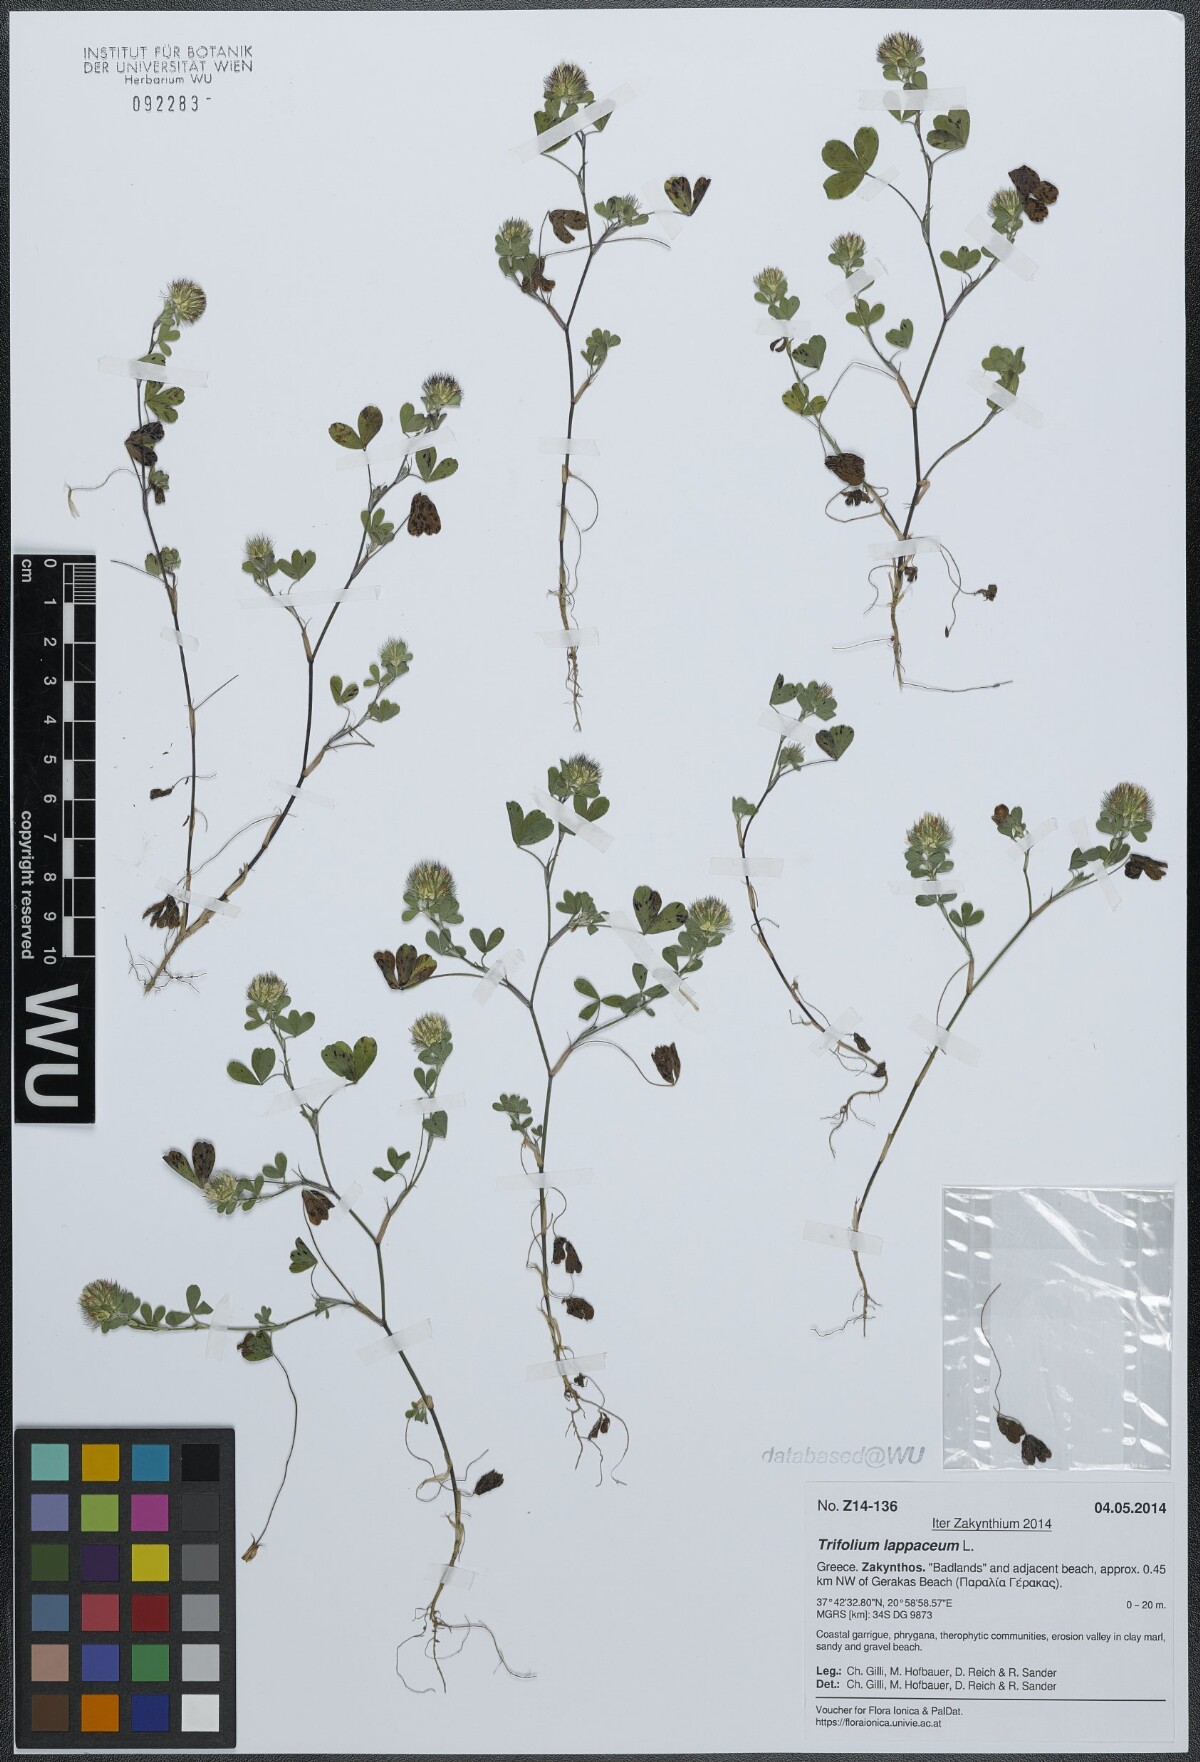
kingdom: Plantae
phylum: Tracheophyta
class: Magnoliopsida
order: Fabales
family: Fabaceae
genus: Trifolium
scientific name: Trifolium lappaceum
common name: Bur clover
